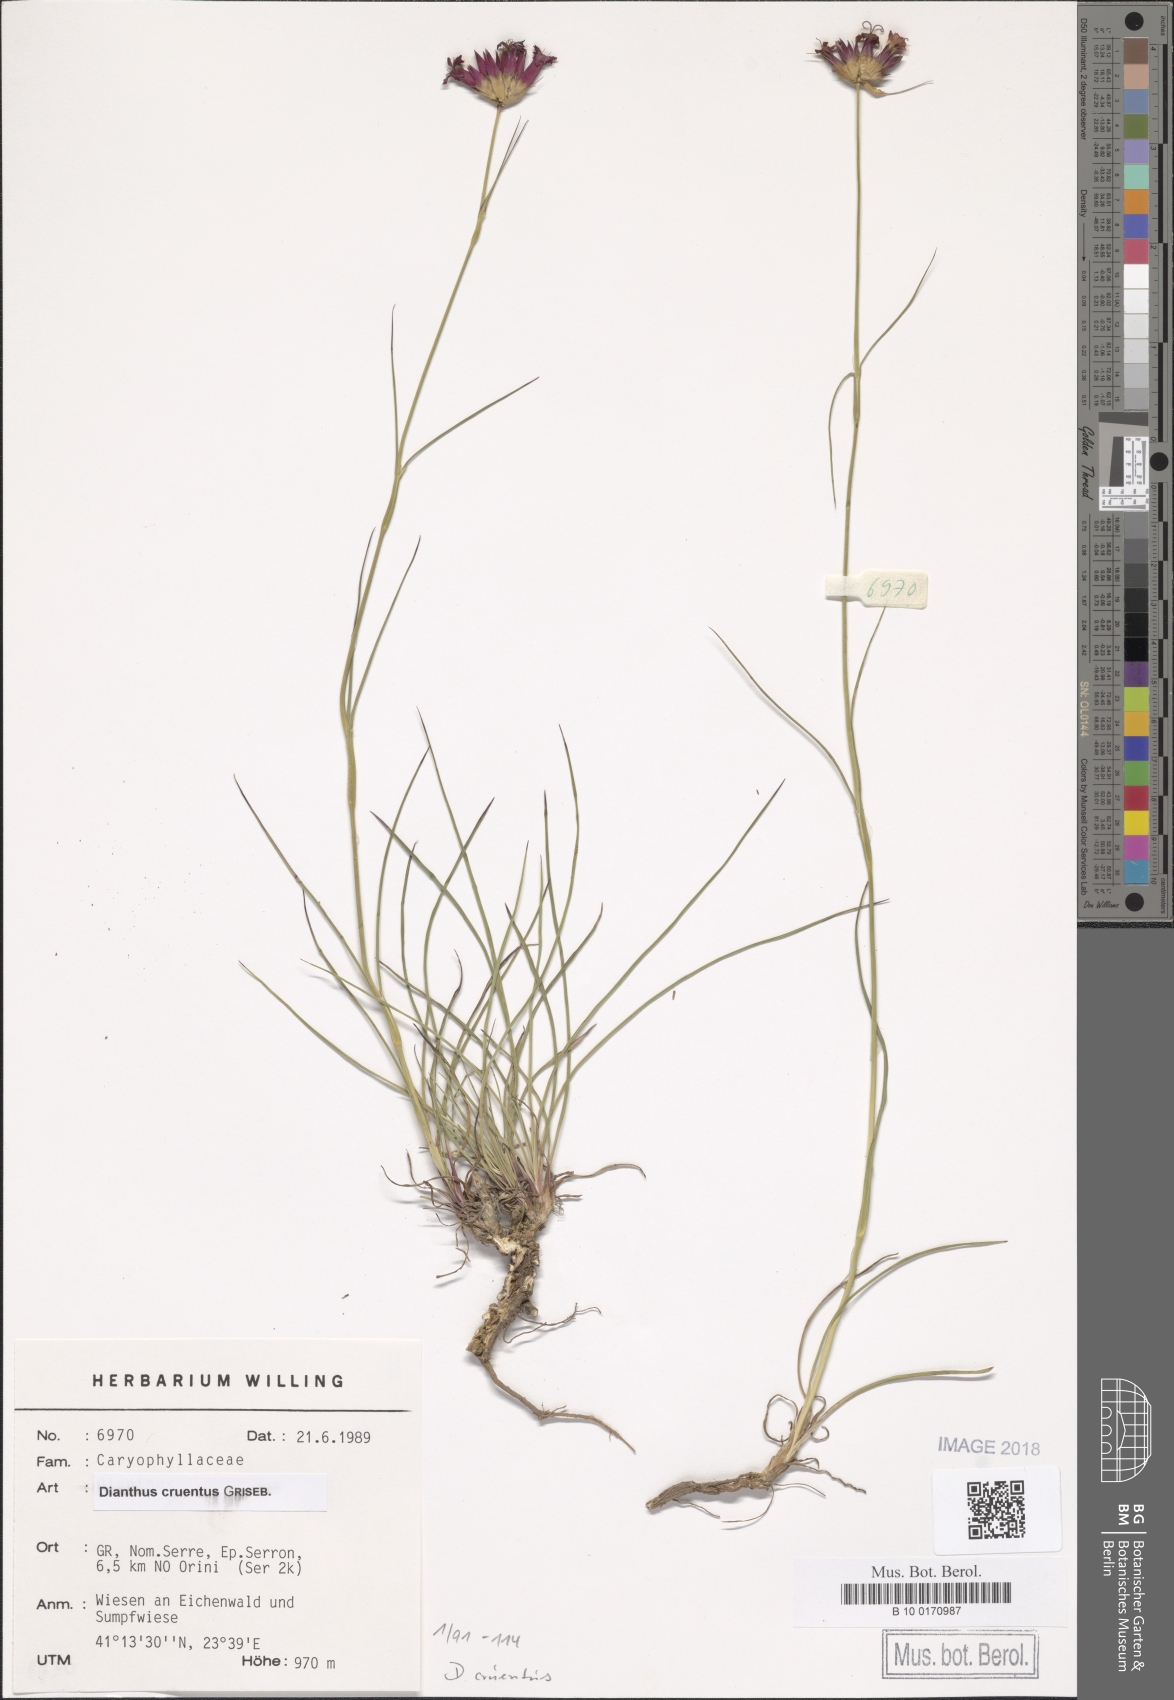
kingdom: Plantae
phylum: Tracheophyta
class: Magnoliopsida
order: Caryophyllales
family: Caryophyllaceae
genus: Dianthus
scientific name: Dianthus cruentus
